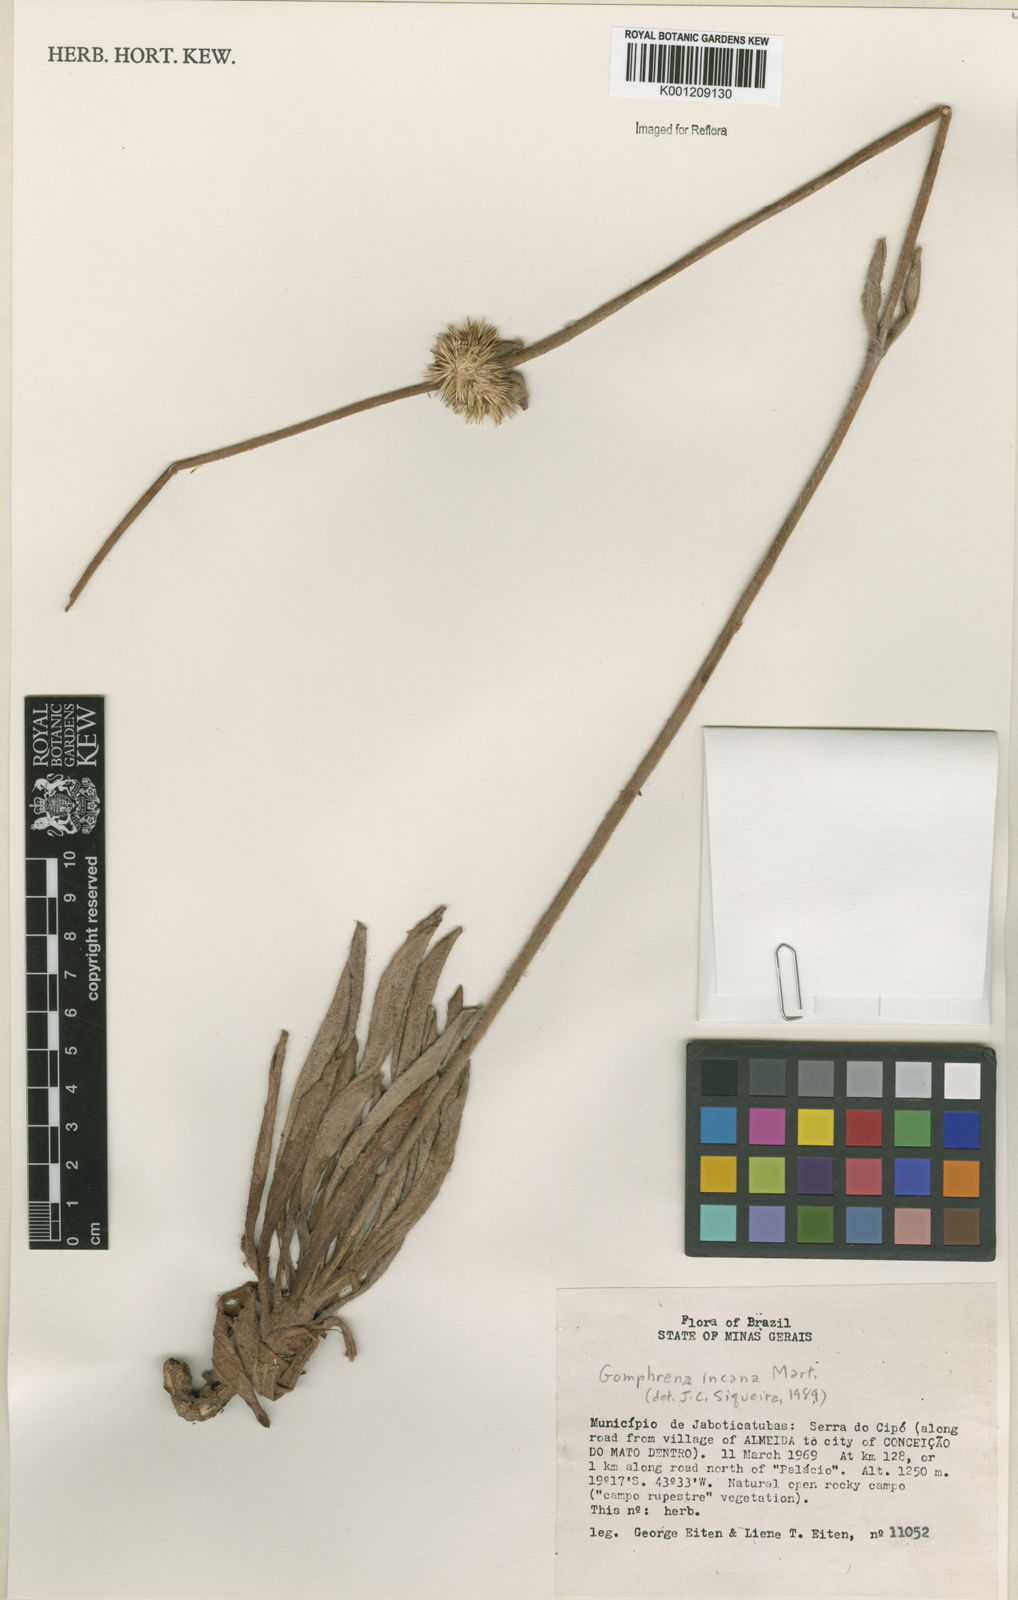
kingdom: Plantae
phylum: Tracheophyta
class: Magnoliopsida
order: Caryophyllales
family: Amaranthaceae
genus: Gomphrena
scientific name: Gomphrena incana
